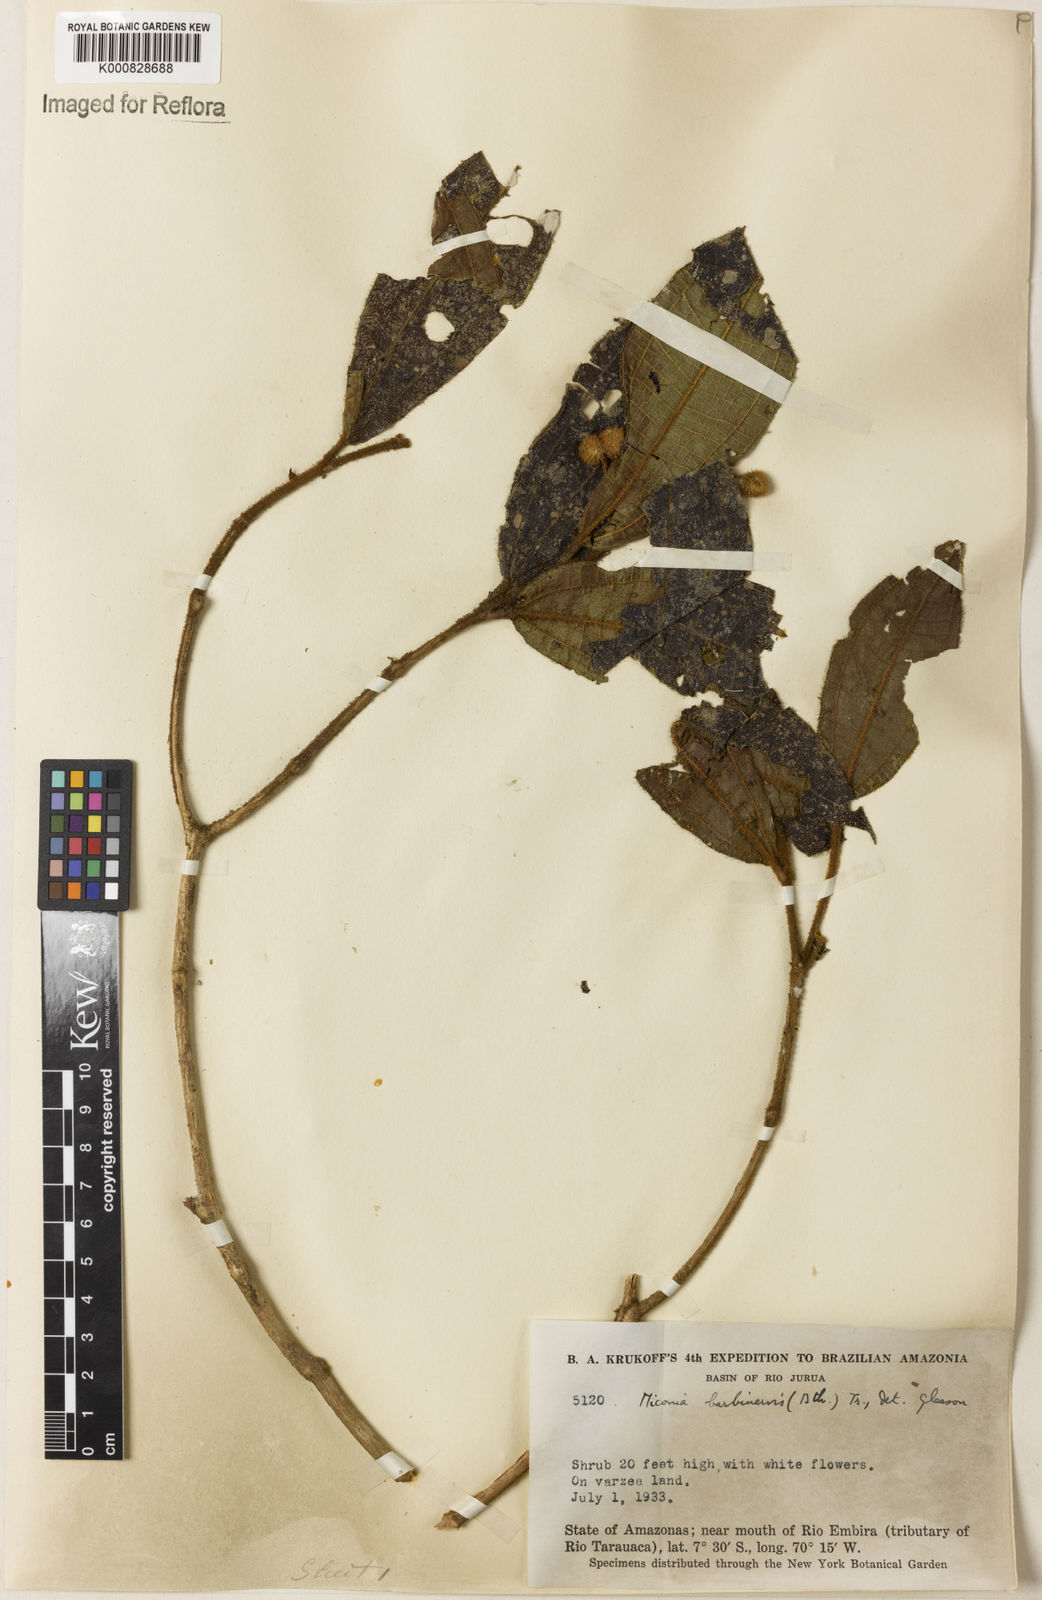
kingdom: Plantae
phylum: Tracheophyta
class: Magnoliopsida
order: Myrtales
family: Melastomataceae
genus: Miconia
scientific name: Miconia barbinervis
